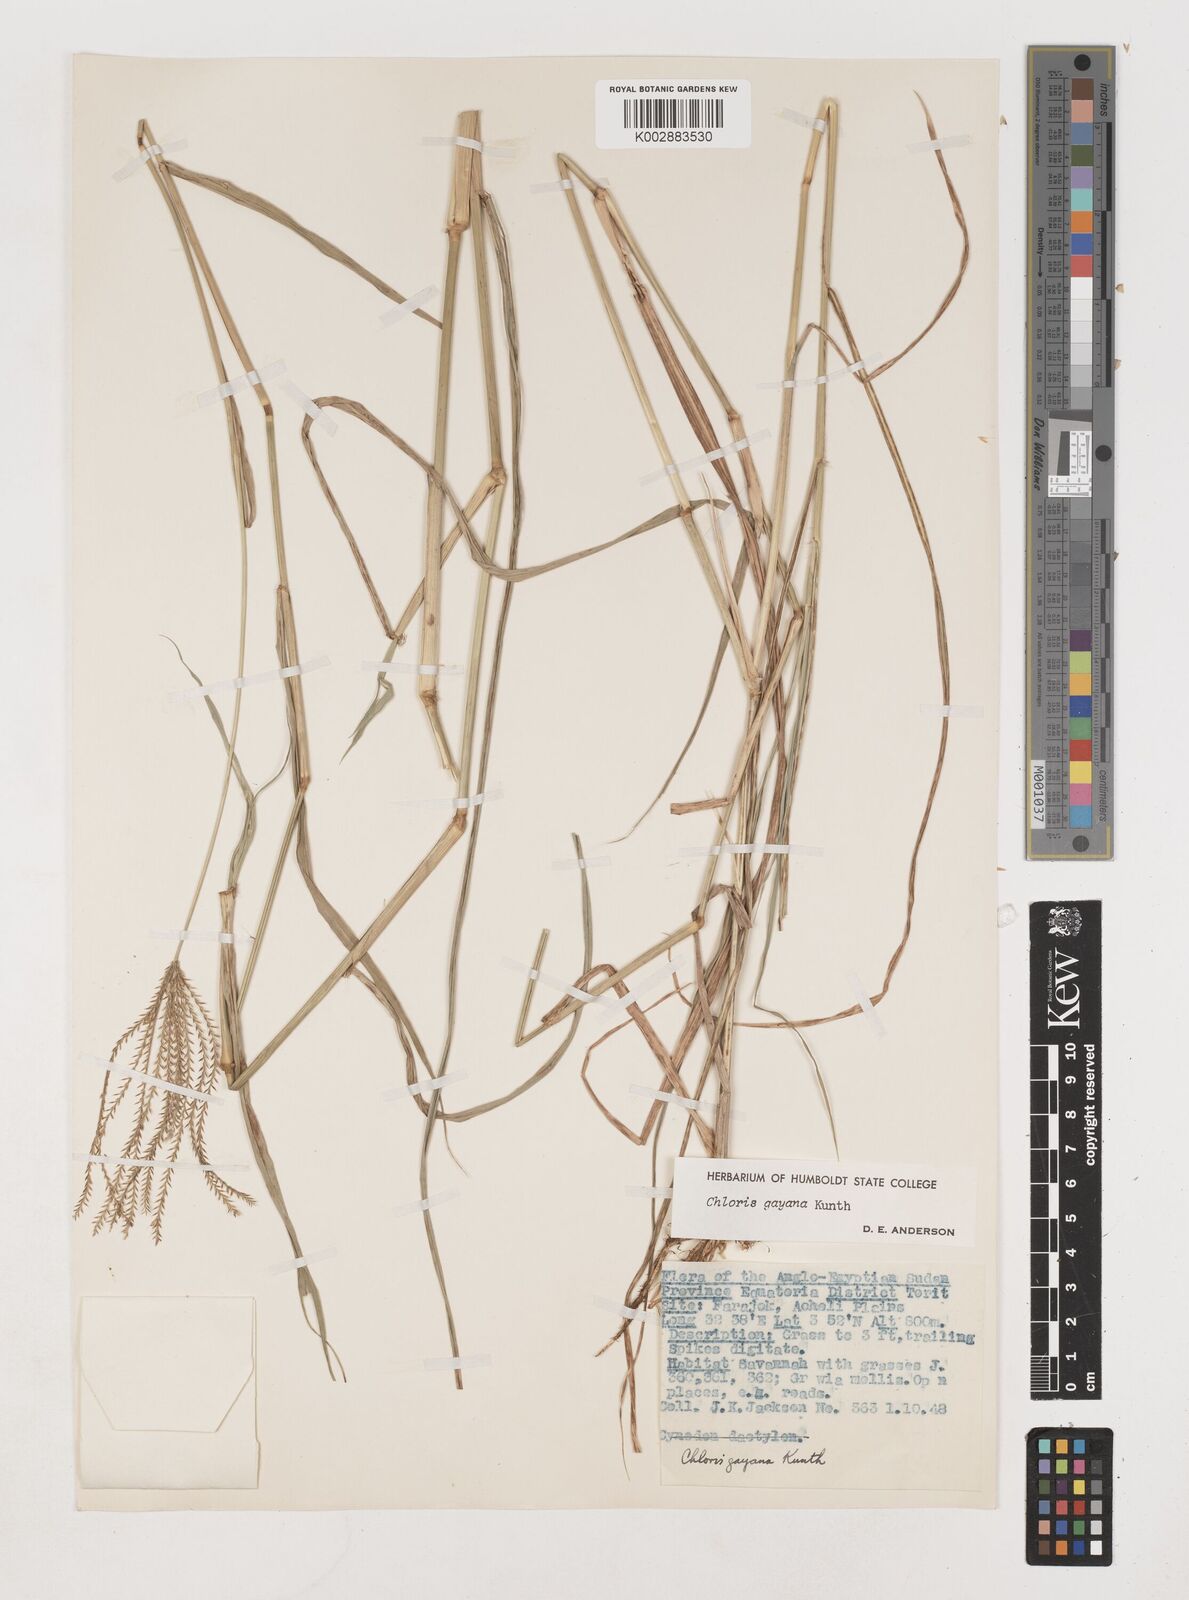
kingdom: Plantae
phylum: Tracheophyta
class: Liliopsida
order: Poales
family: Poaceae
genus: Chloris
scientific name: Chloris gayana
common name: Rhodes grass
